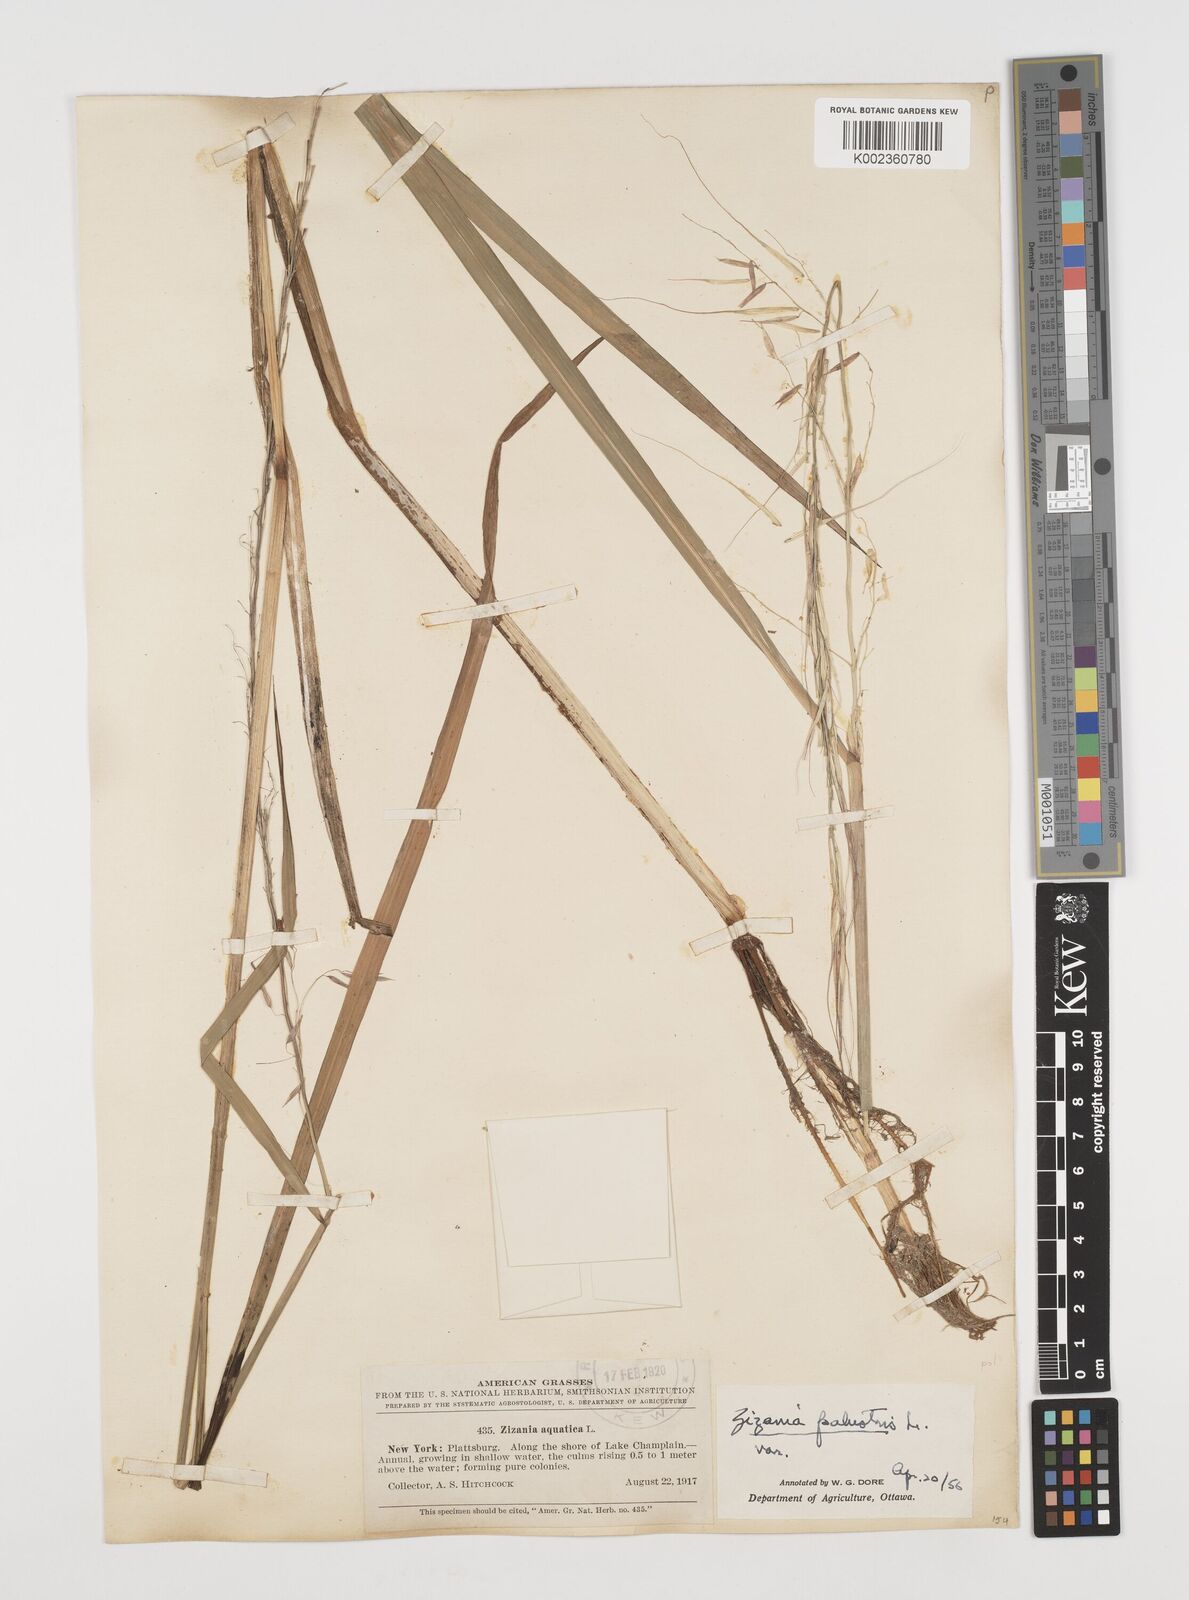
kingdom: Plantae
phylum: Tracheophyta
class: Liliopsida
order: Poales
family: Poaceae
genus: Zizania
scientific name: Zizania palustris
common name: Northern wild rice
